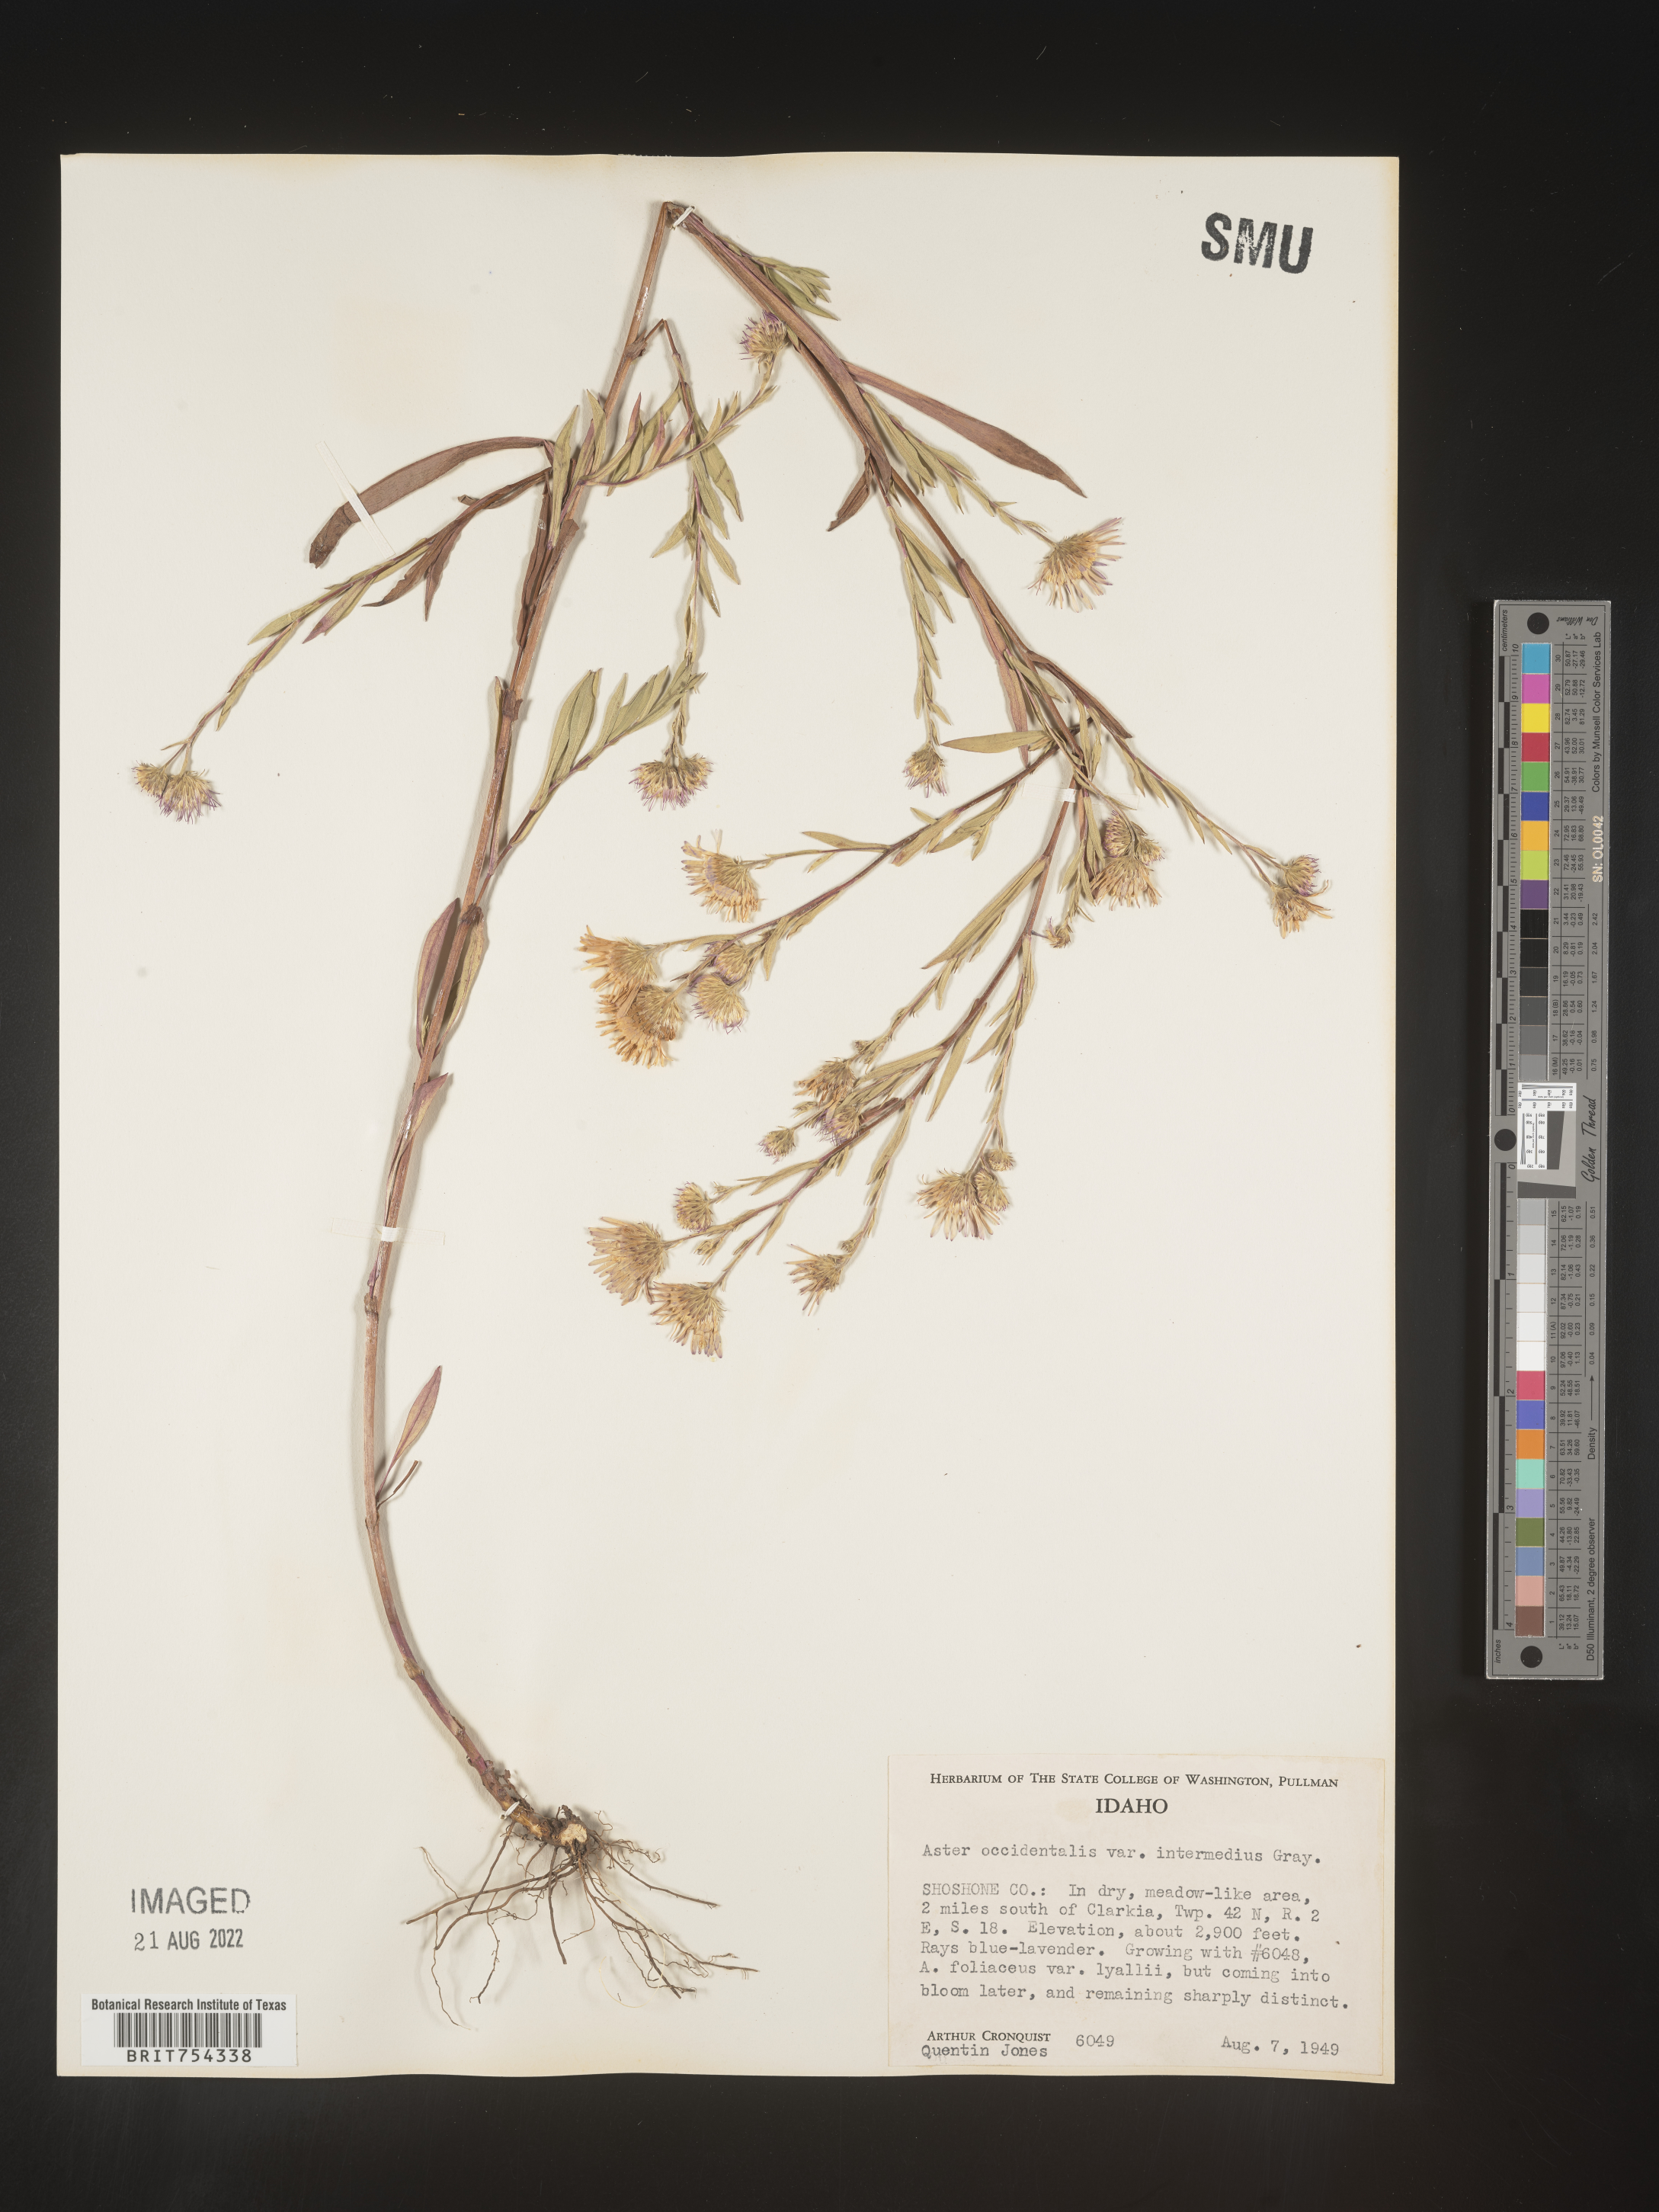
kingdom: Plantae
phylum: Tracheophyta
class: Magnoliopsida
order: Asterales
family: Asteraceae
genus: Symphyotrichum
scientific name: Symphyotrichum spathulatum
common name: Western mountain aster
